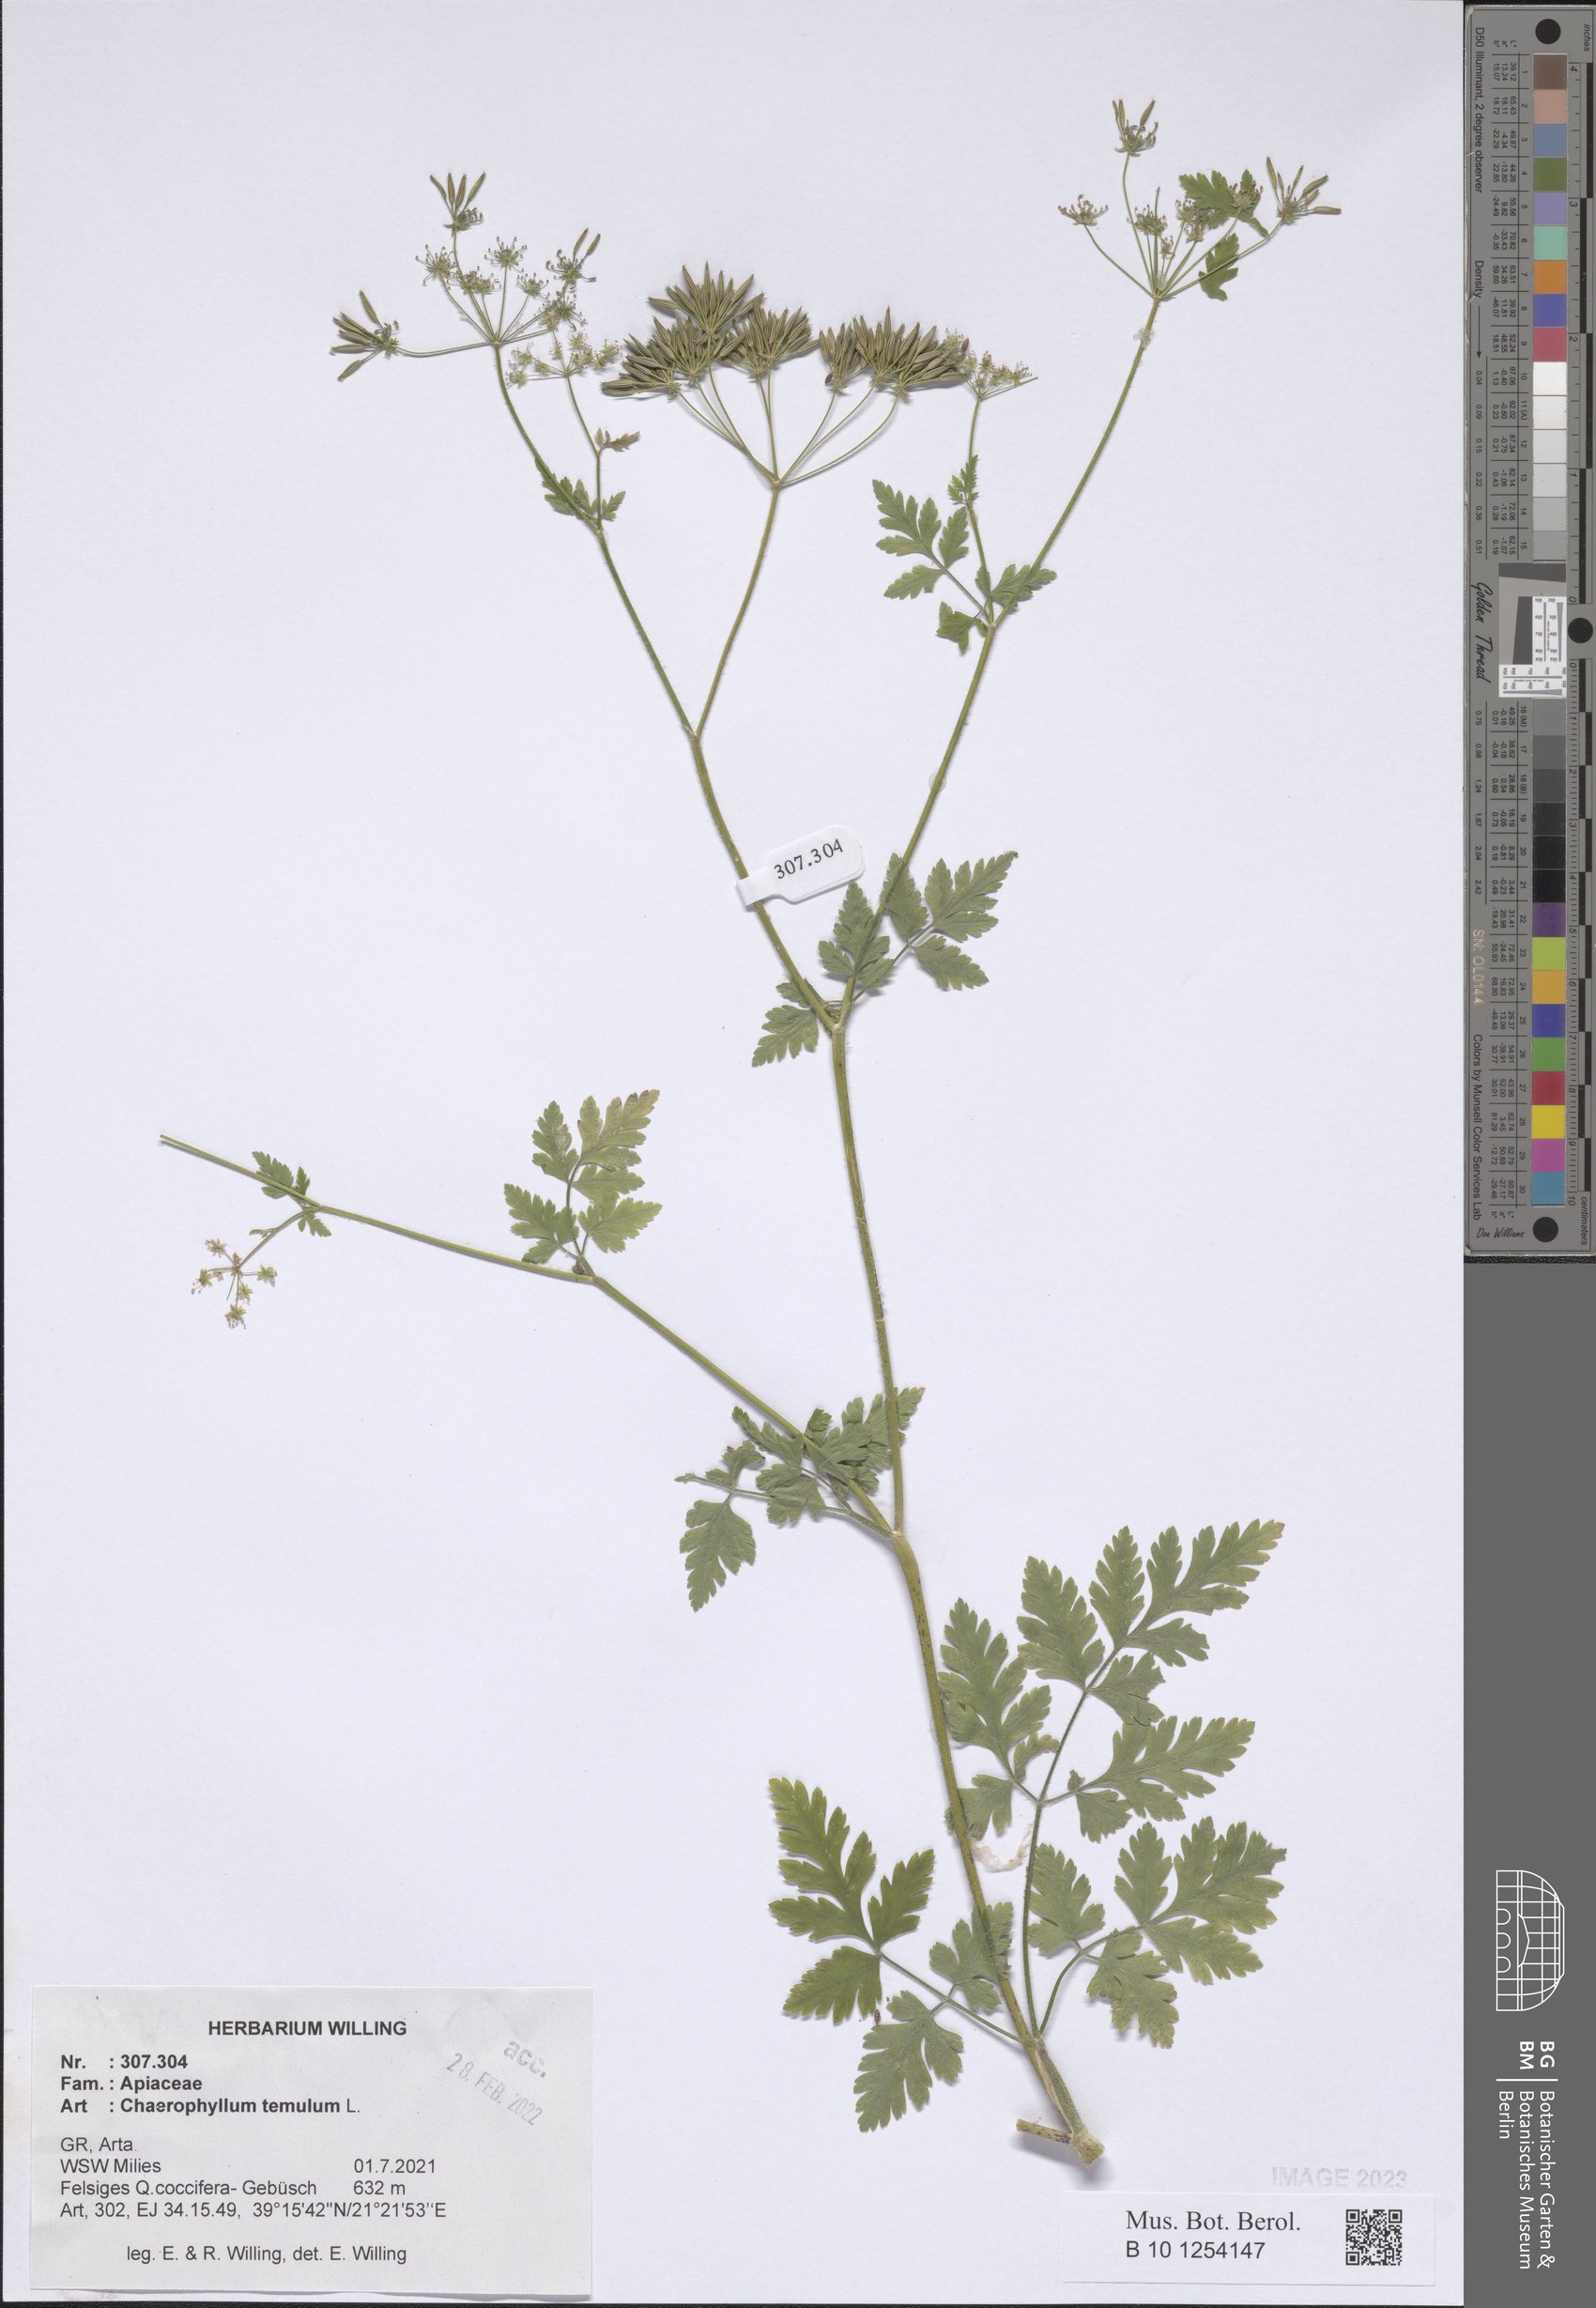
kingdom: Plantae
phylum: Tracheophyta
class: Magnoliopsida
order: Apiales
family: Apiaceae
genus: Chaerophyllum
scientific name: Chaerophyllum temulum
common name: Rough chervil
